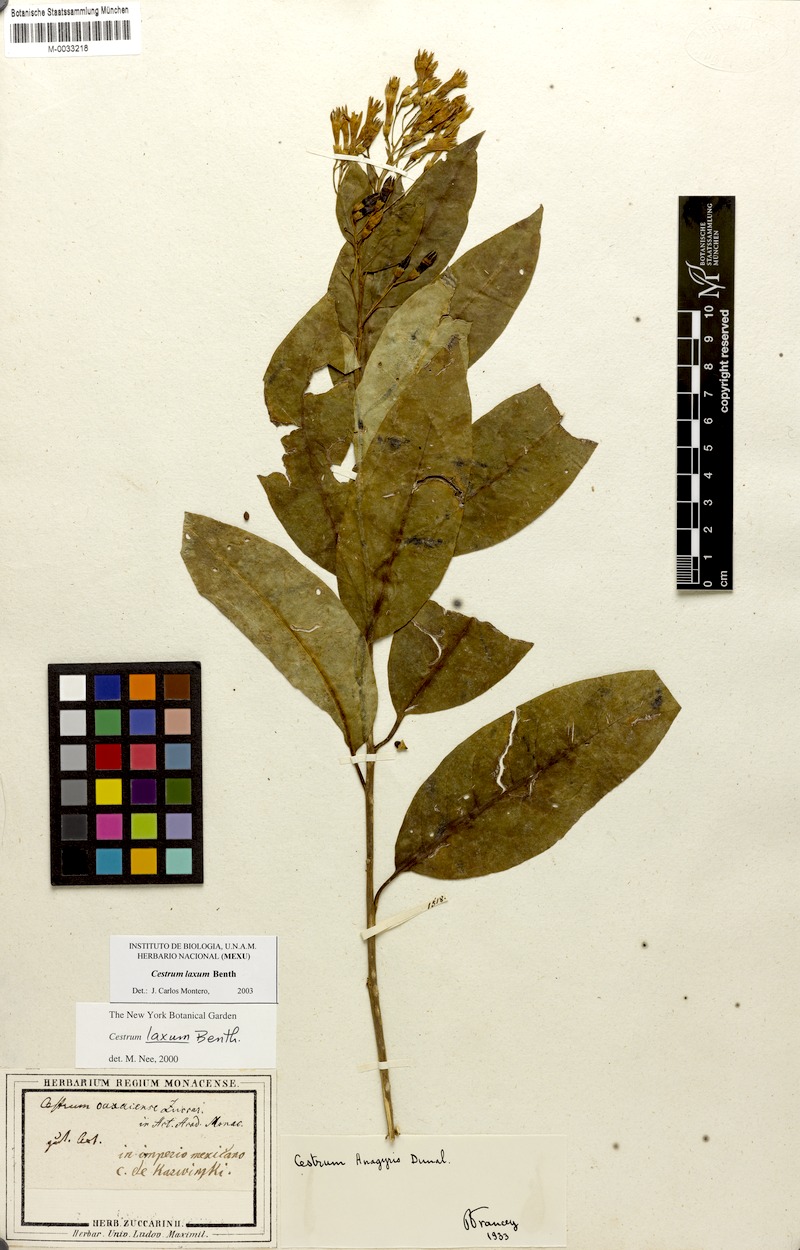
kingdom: Plantae
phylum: Tracheophyta
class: Magnoliopsida
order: Solanales
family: Solanaceae
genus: Cestrum
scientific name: Cestrum laxum
